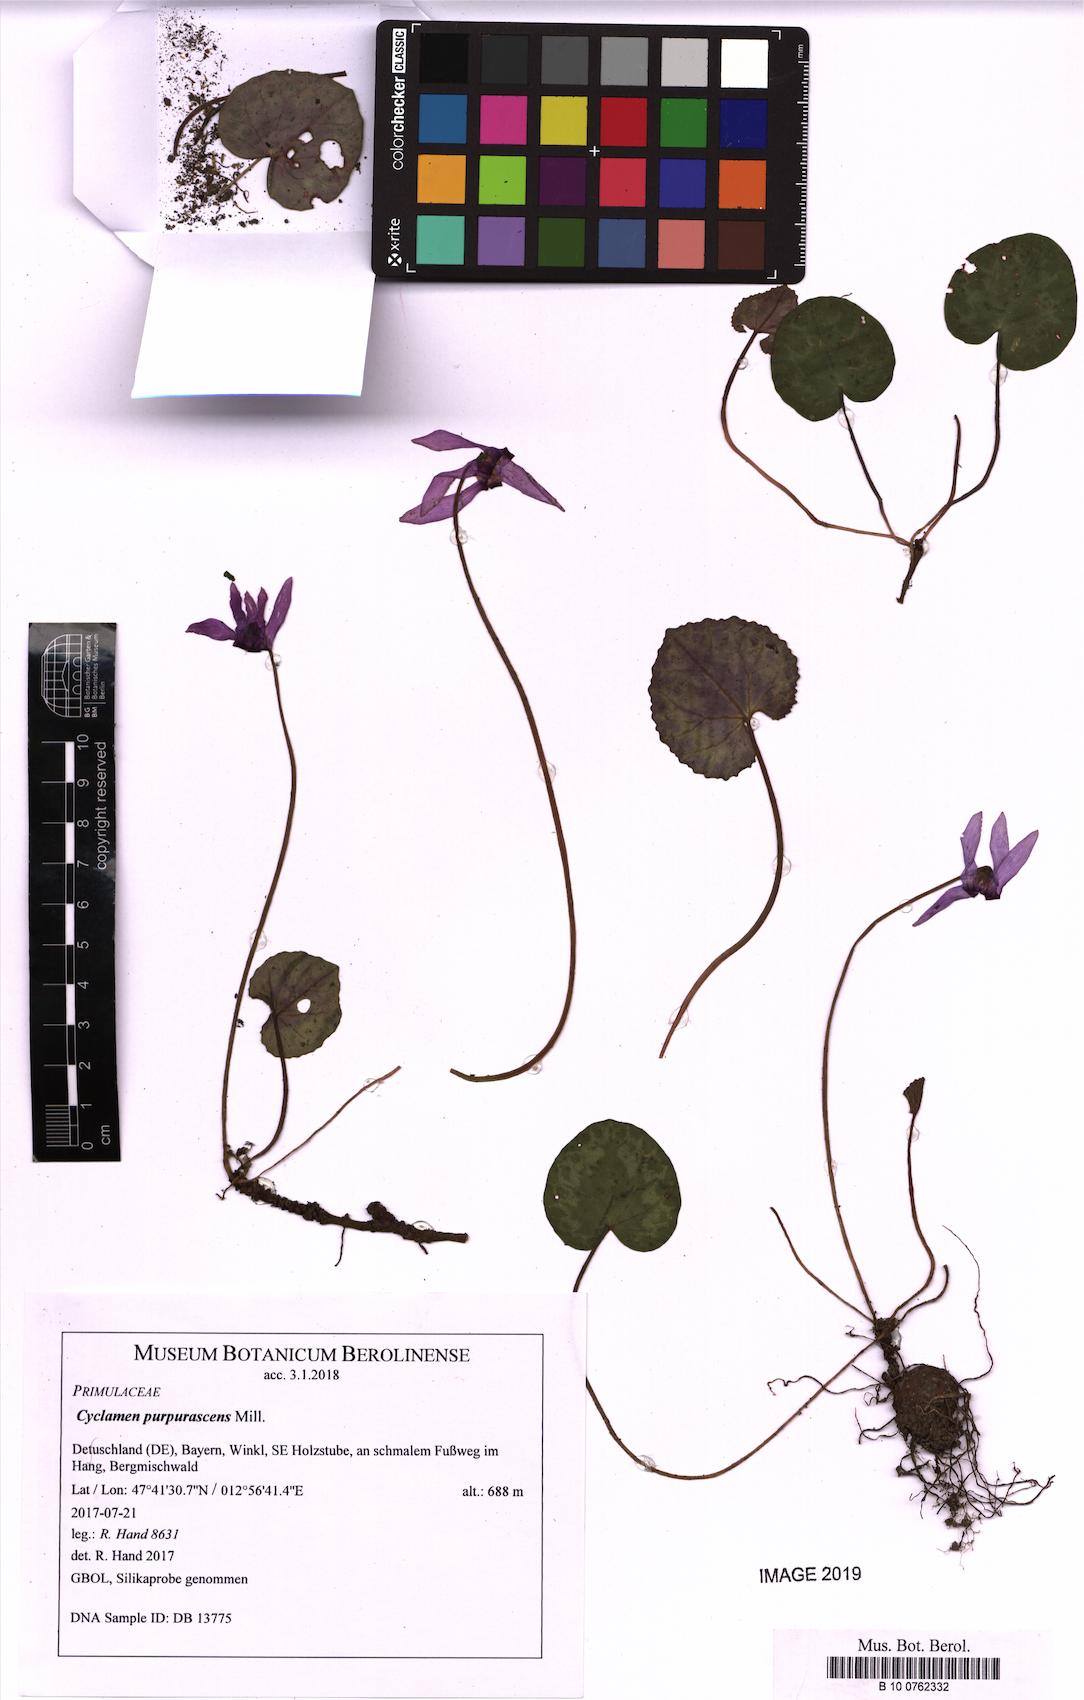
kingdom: Plantae
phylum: Tracheophyta
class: Magnoliopsida
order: Ericales
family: Primulaceae
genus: Cyclamen
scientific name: Cyclamen purpurascens
